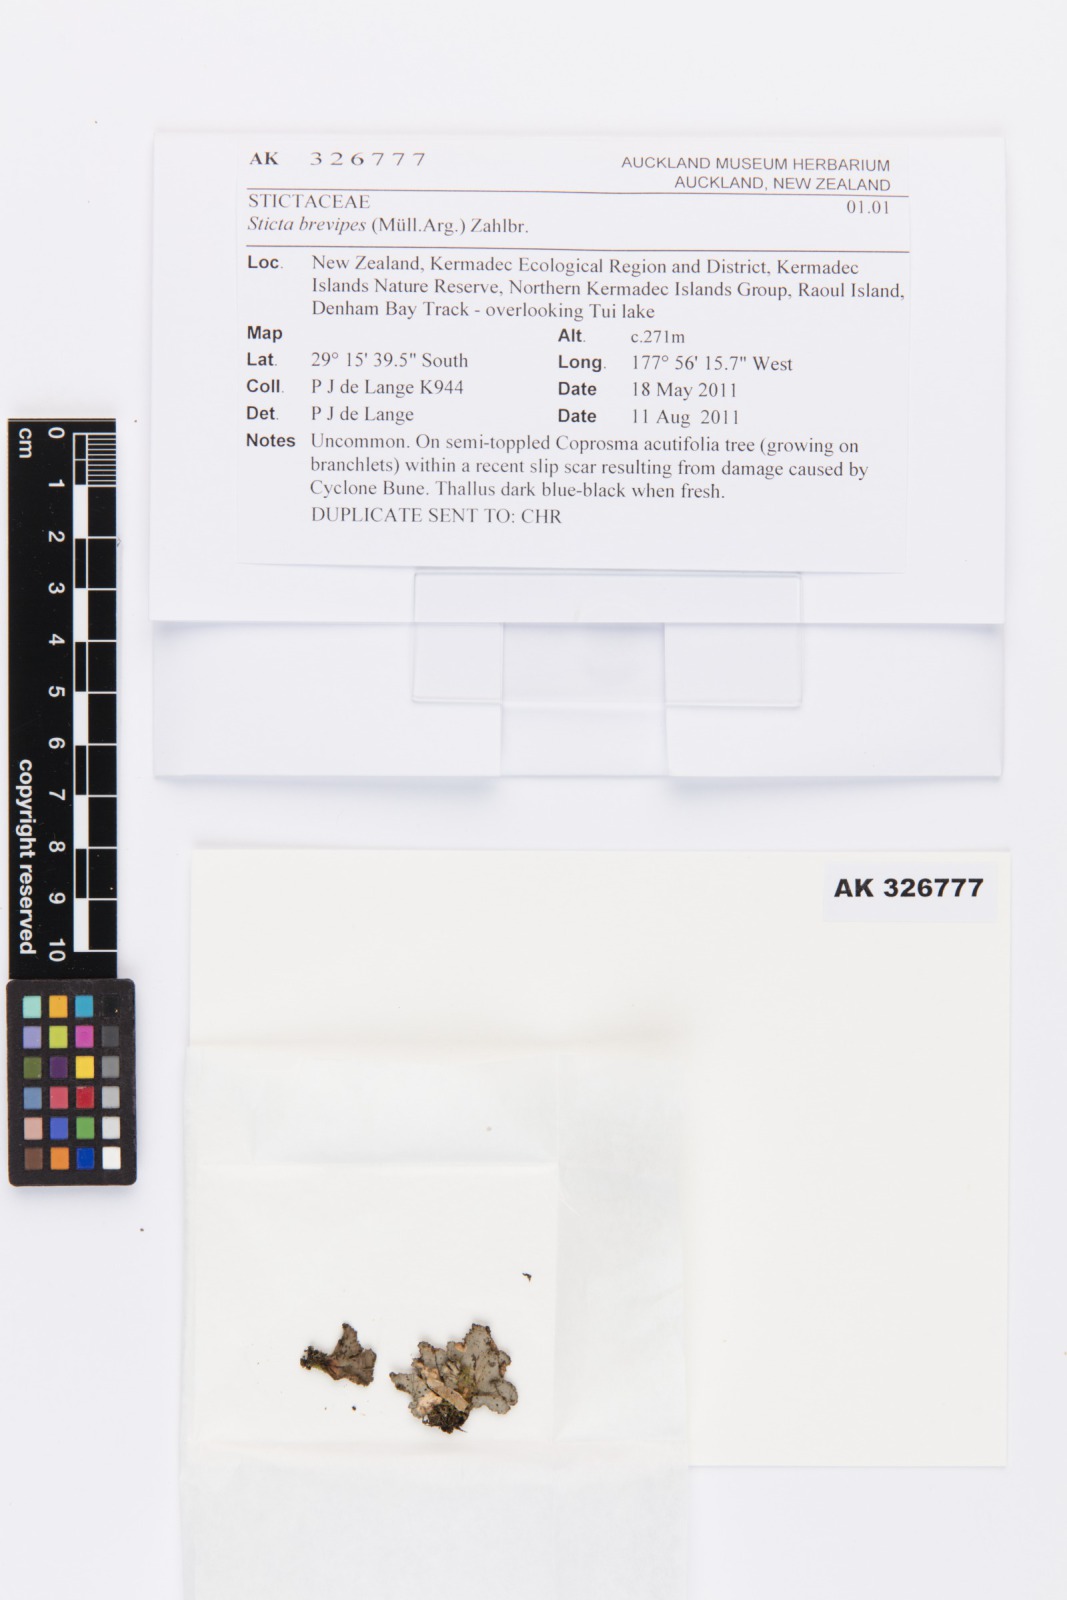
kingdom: Fungi
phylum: Ascomycota
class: Lecanoromycetes
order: Peltigerales
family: Lobariaceae
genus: Sticta
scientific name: Sticta brevipes
